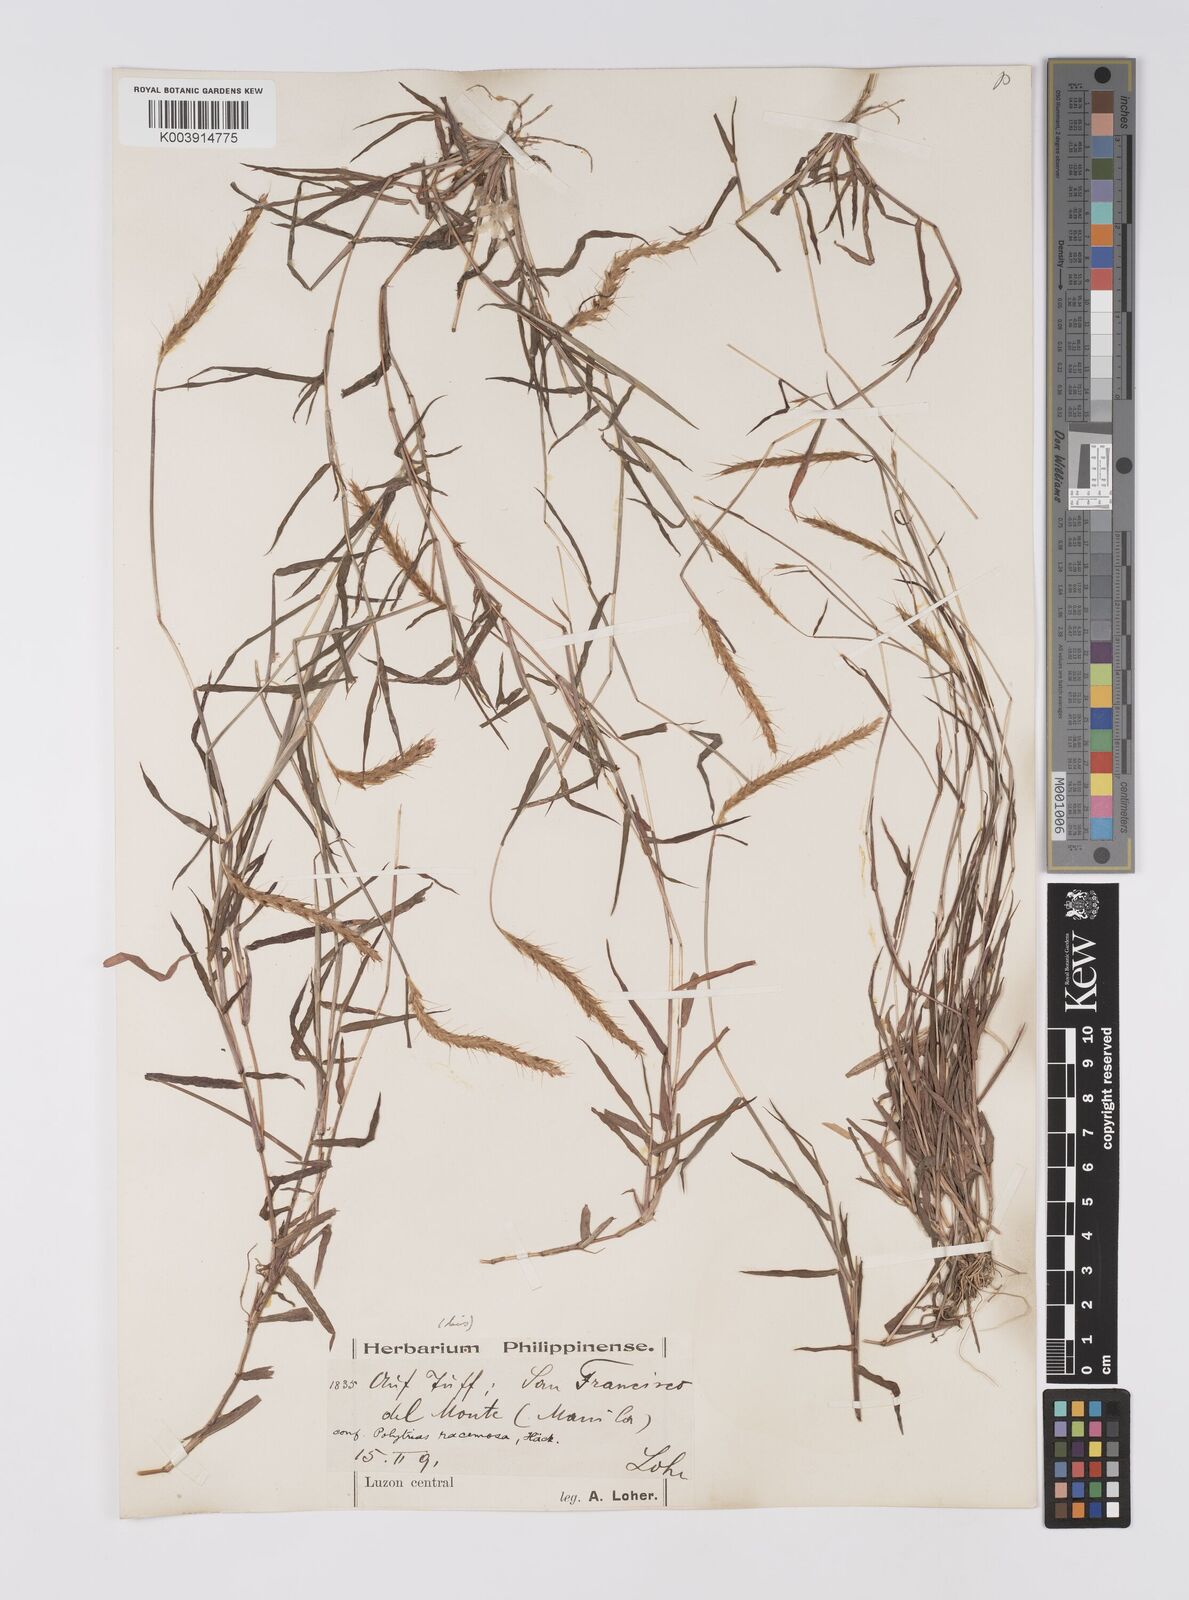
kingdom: Plantae
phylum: Tracheophyta
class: Liliopsida
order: Poales
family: Poaceae
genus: Polytrias
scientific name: Polytrias indica
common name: Indian murainagrass
